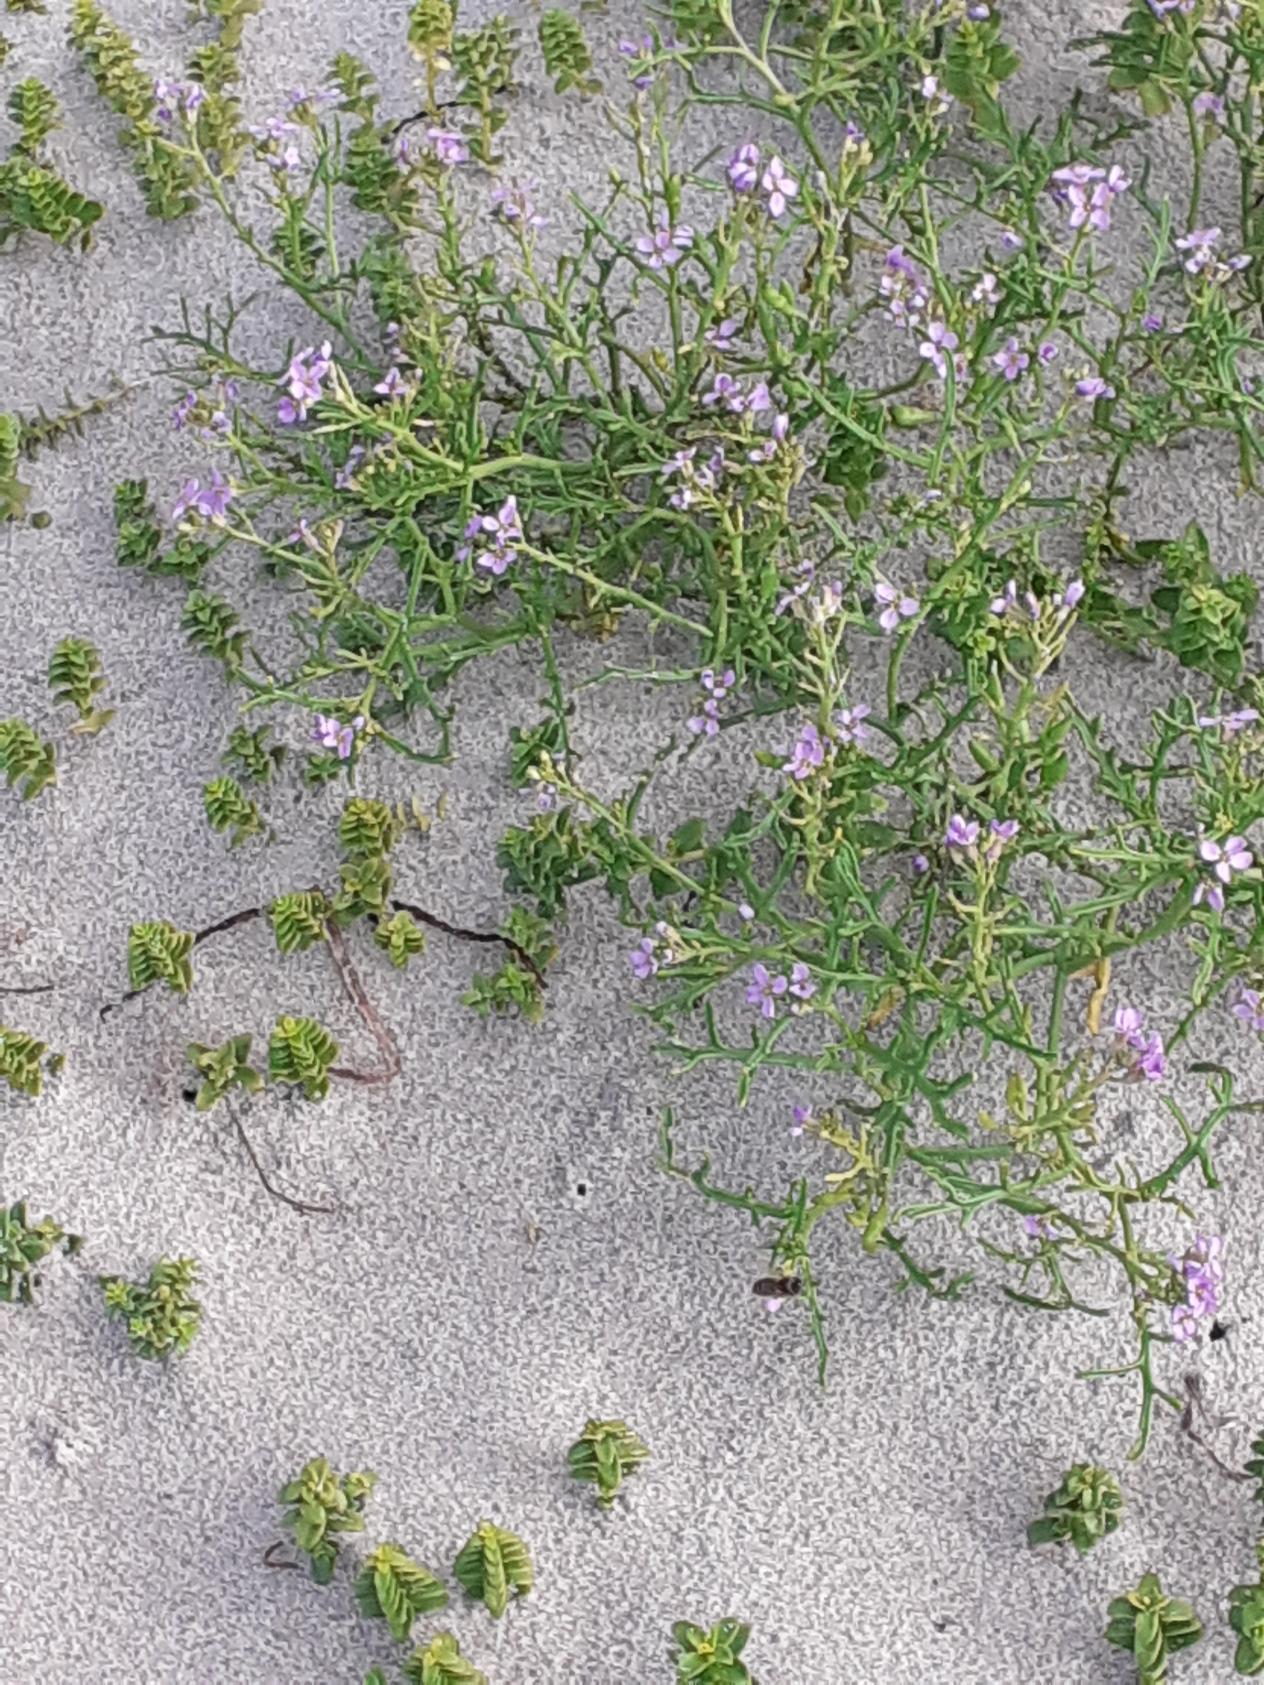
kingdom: Plantae
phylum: Tracheophyta
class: Magnoliopsida
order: Brassicales
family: Brassicaceae
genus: Cakile
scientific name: Cakile maritima
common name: Strandsennep
